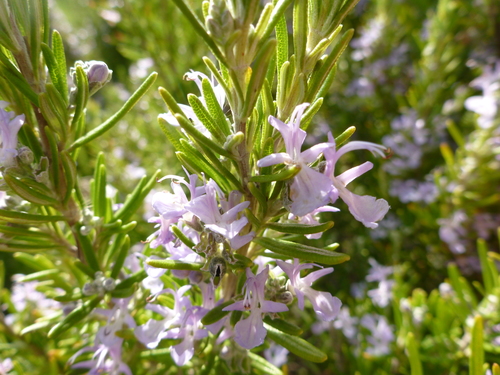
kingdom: Plantae
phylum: Tracheophyta
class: Magnoliopsida
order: Lamiales
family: Lamiaceae
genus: Salvia
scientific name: Salvia rosmarinus
